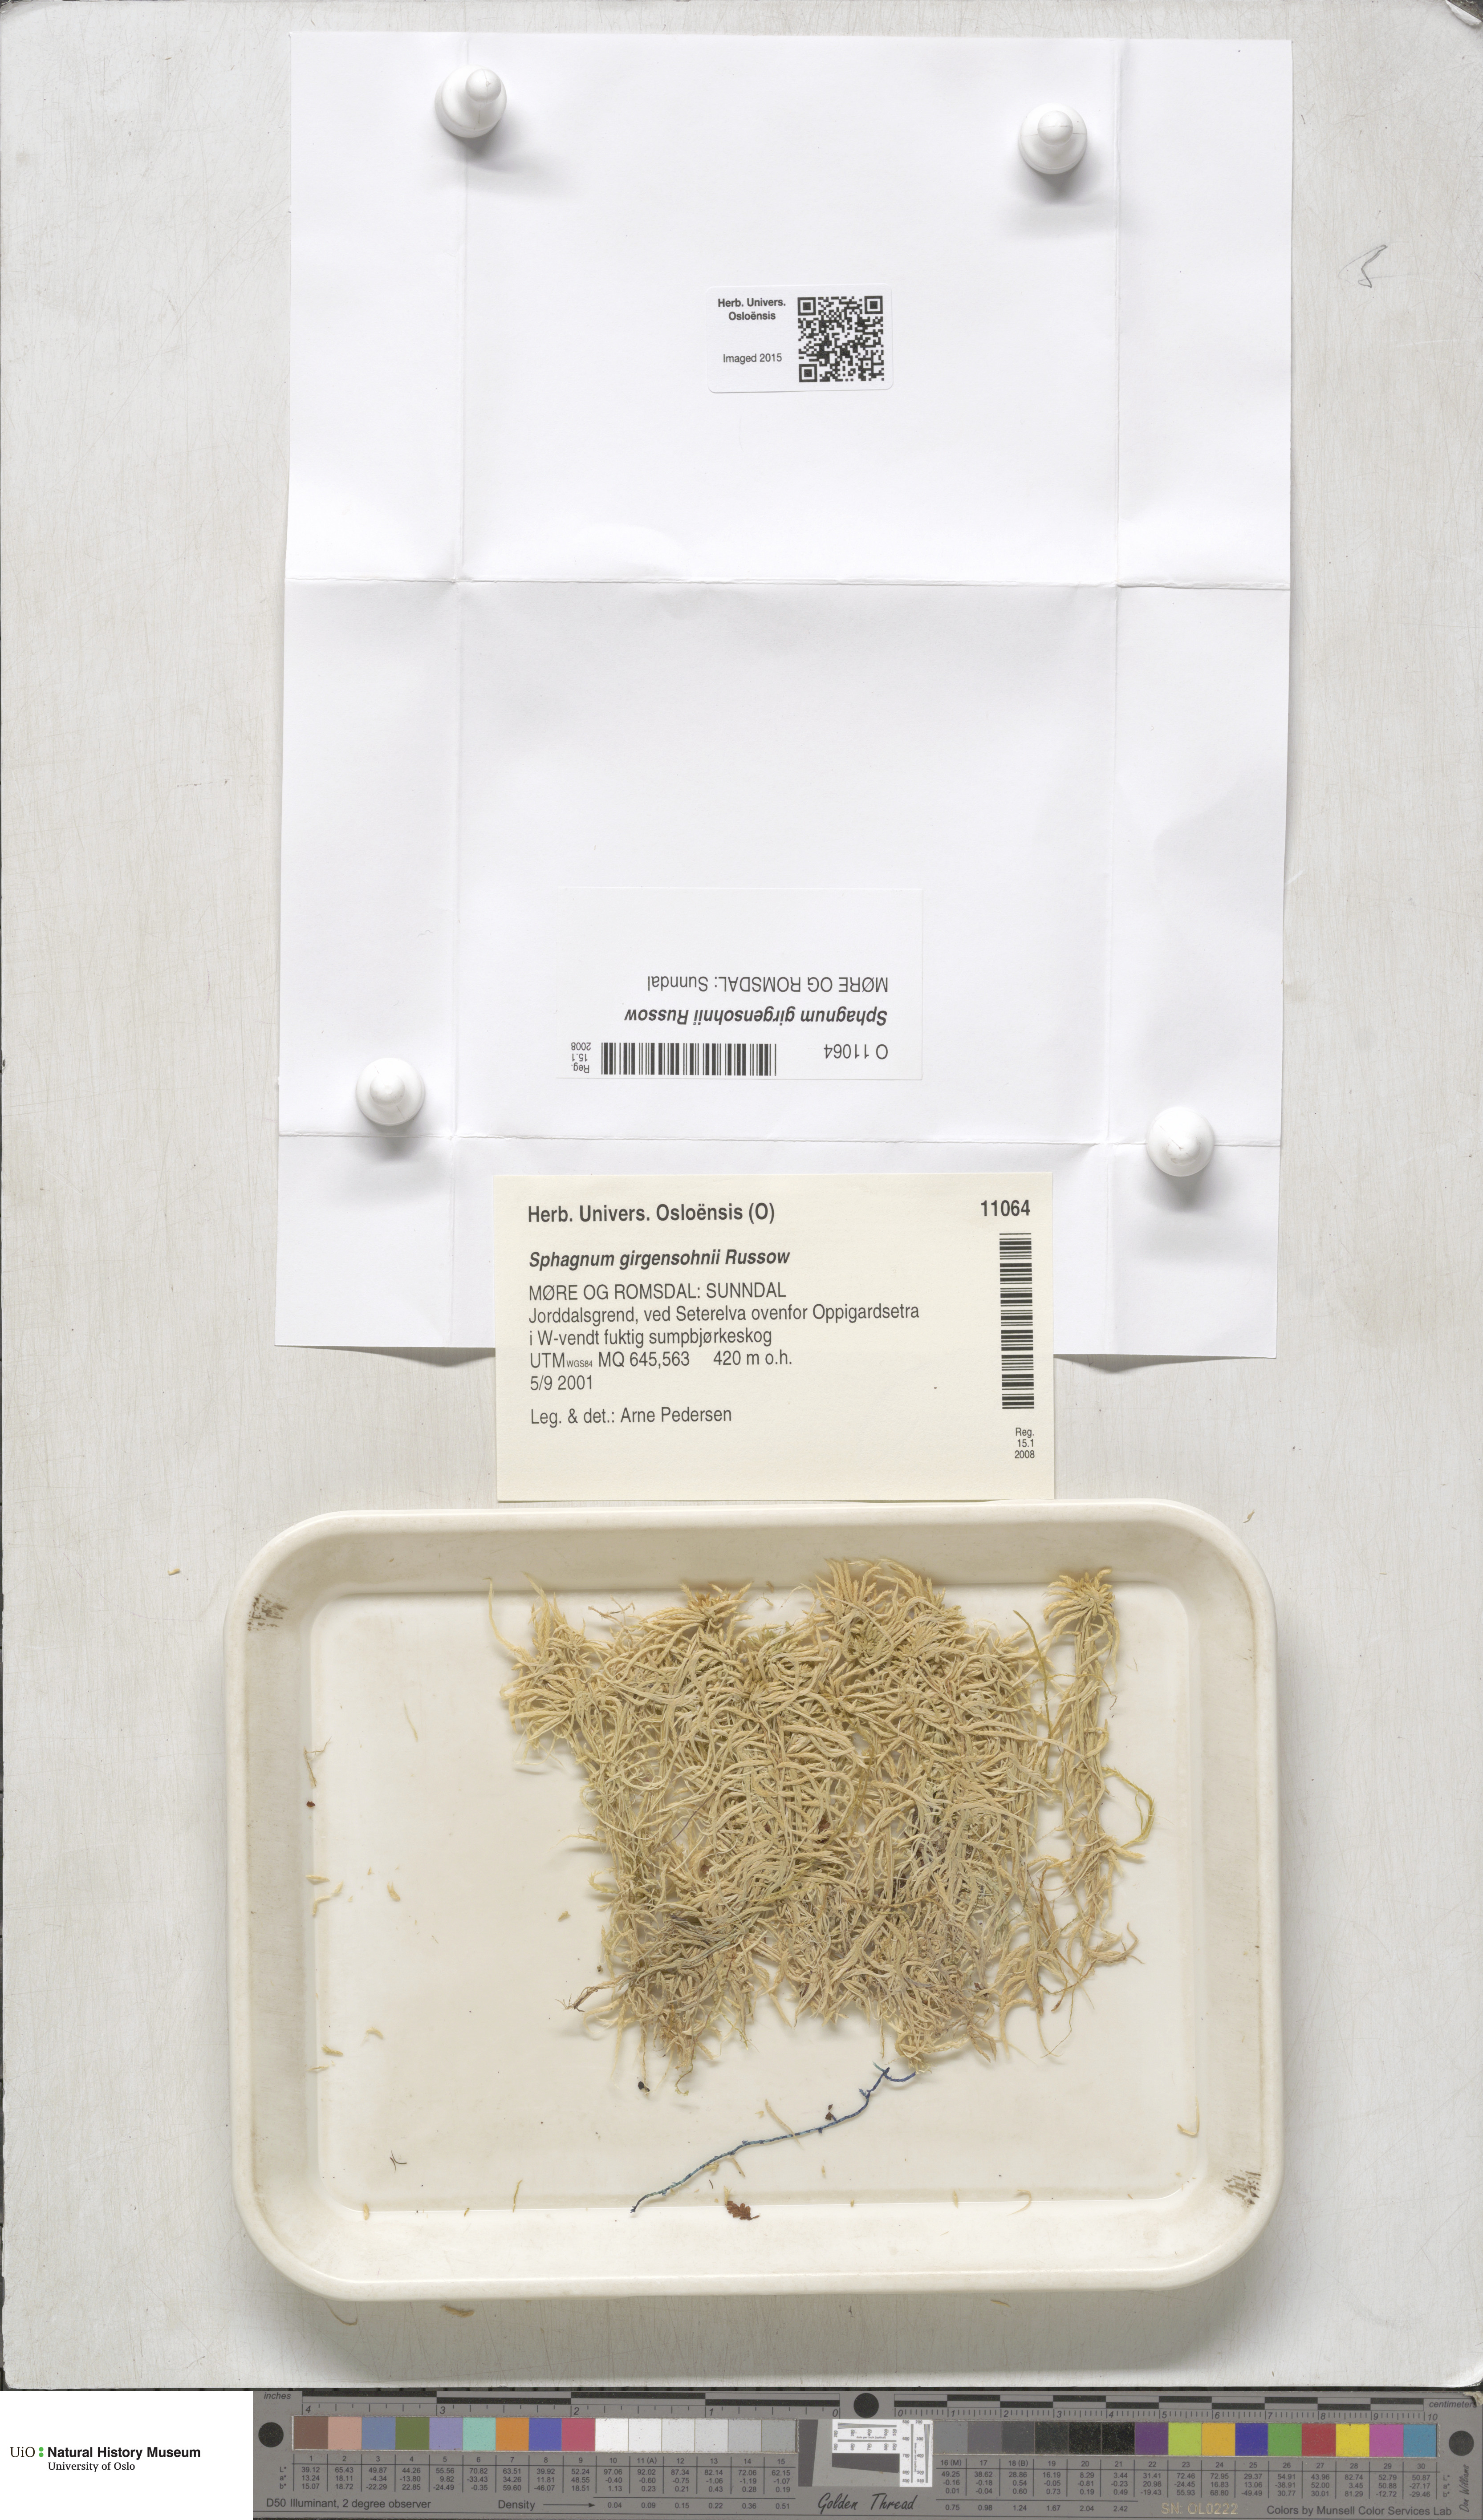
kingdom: Plantae
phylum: Bryophyta
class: Sphagnopsida
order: Sphagnales
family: Sphagnaceae
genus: Sphagnum
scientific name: Sphagnum girgensohnii
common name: Girgensohn's peat moss
